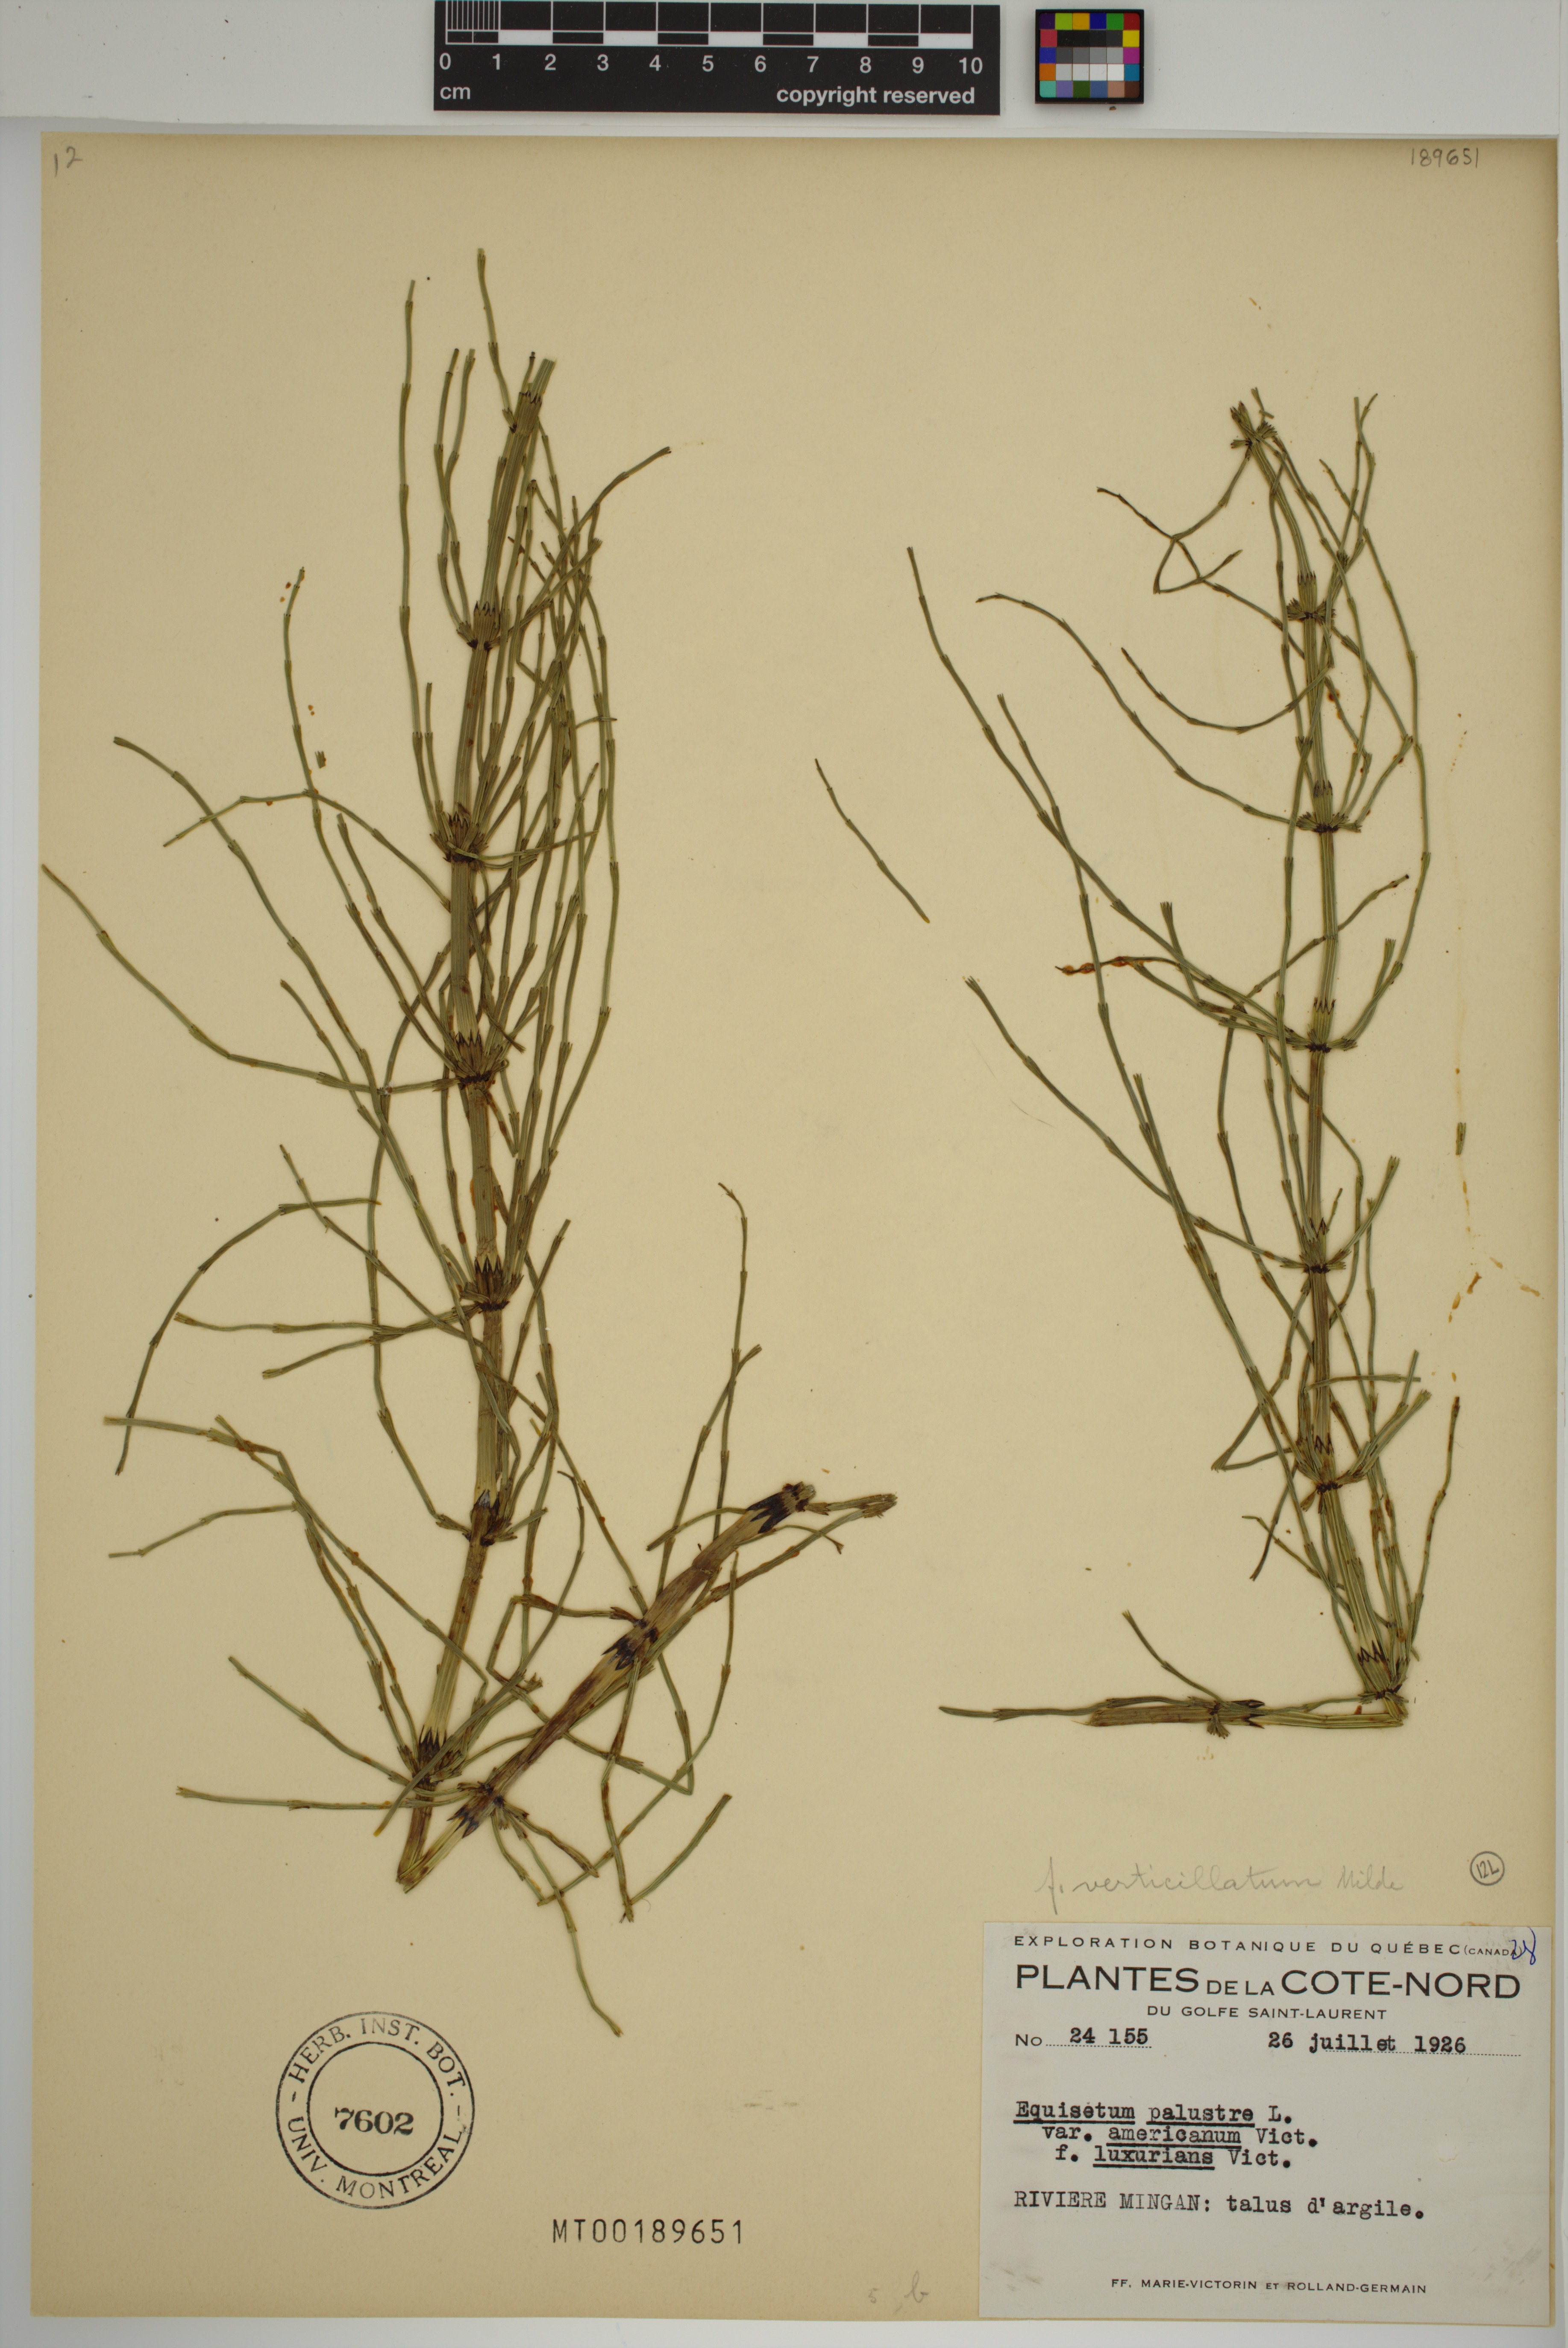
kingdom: Plantae
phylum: Tracheophyta
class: Polypodiopsida
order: Equisetales
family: Equisetaceae
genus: Equisetum
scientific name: Equisetum palustre
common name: Marsh horsetail
